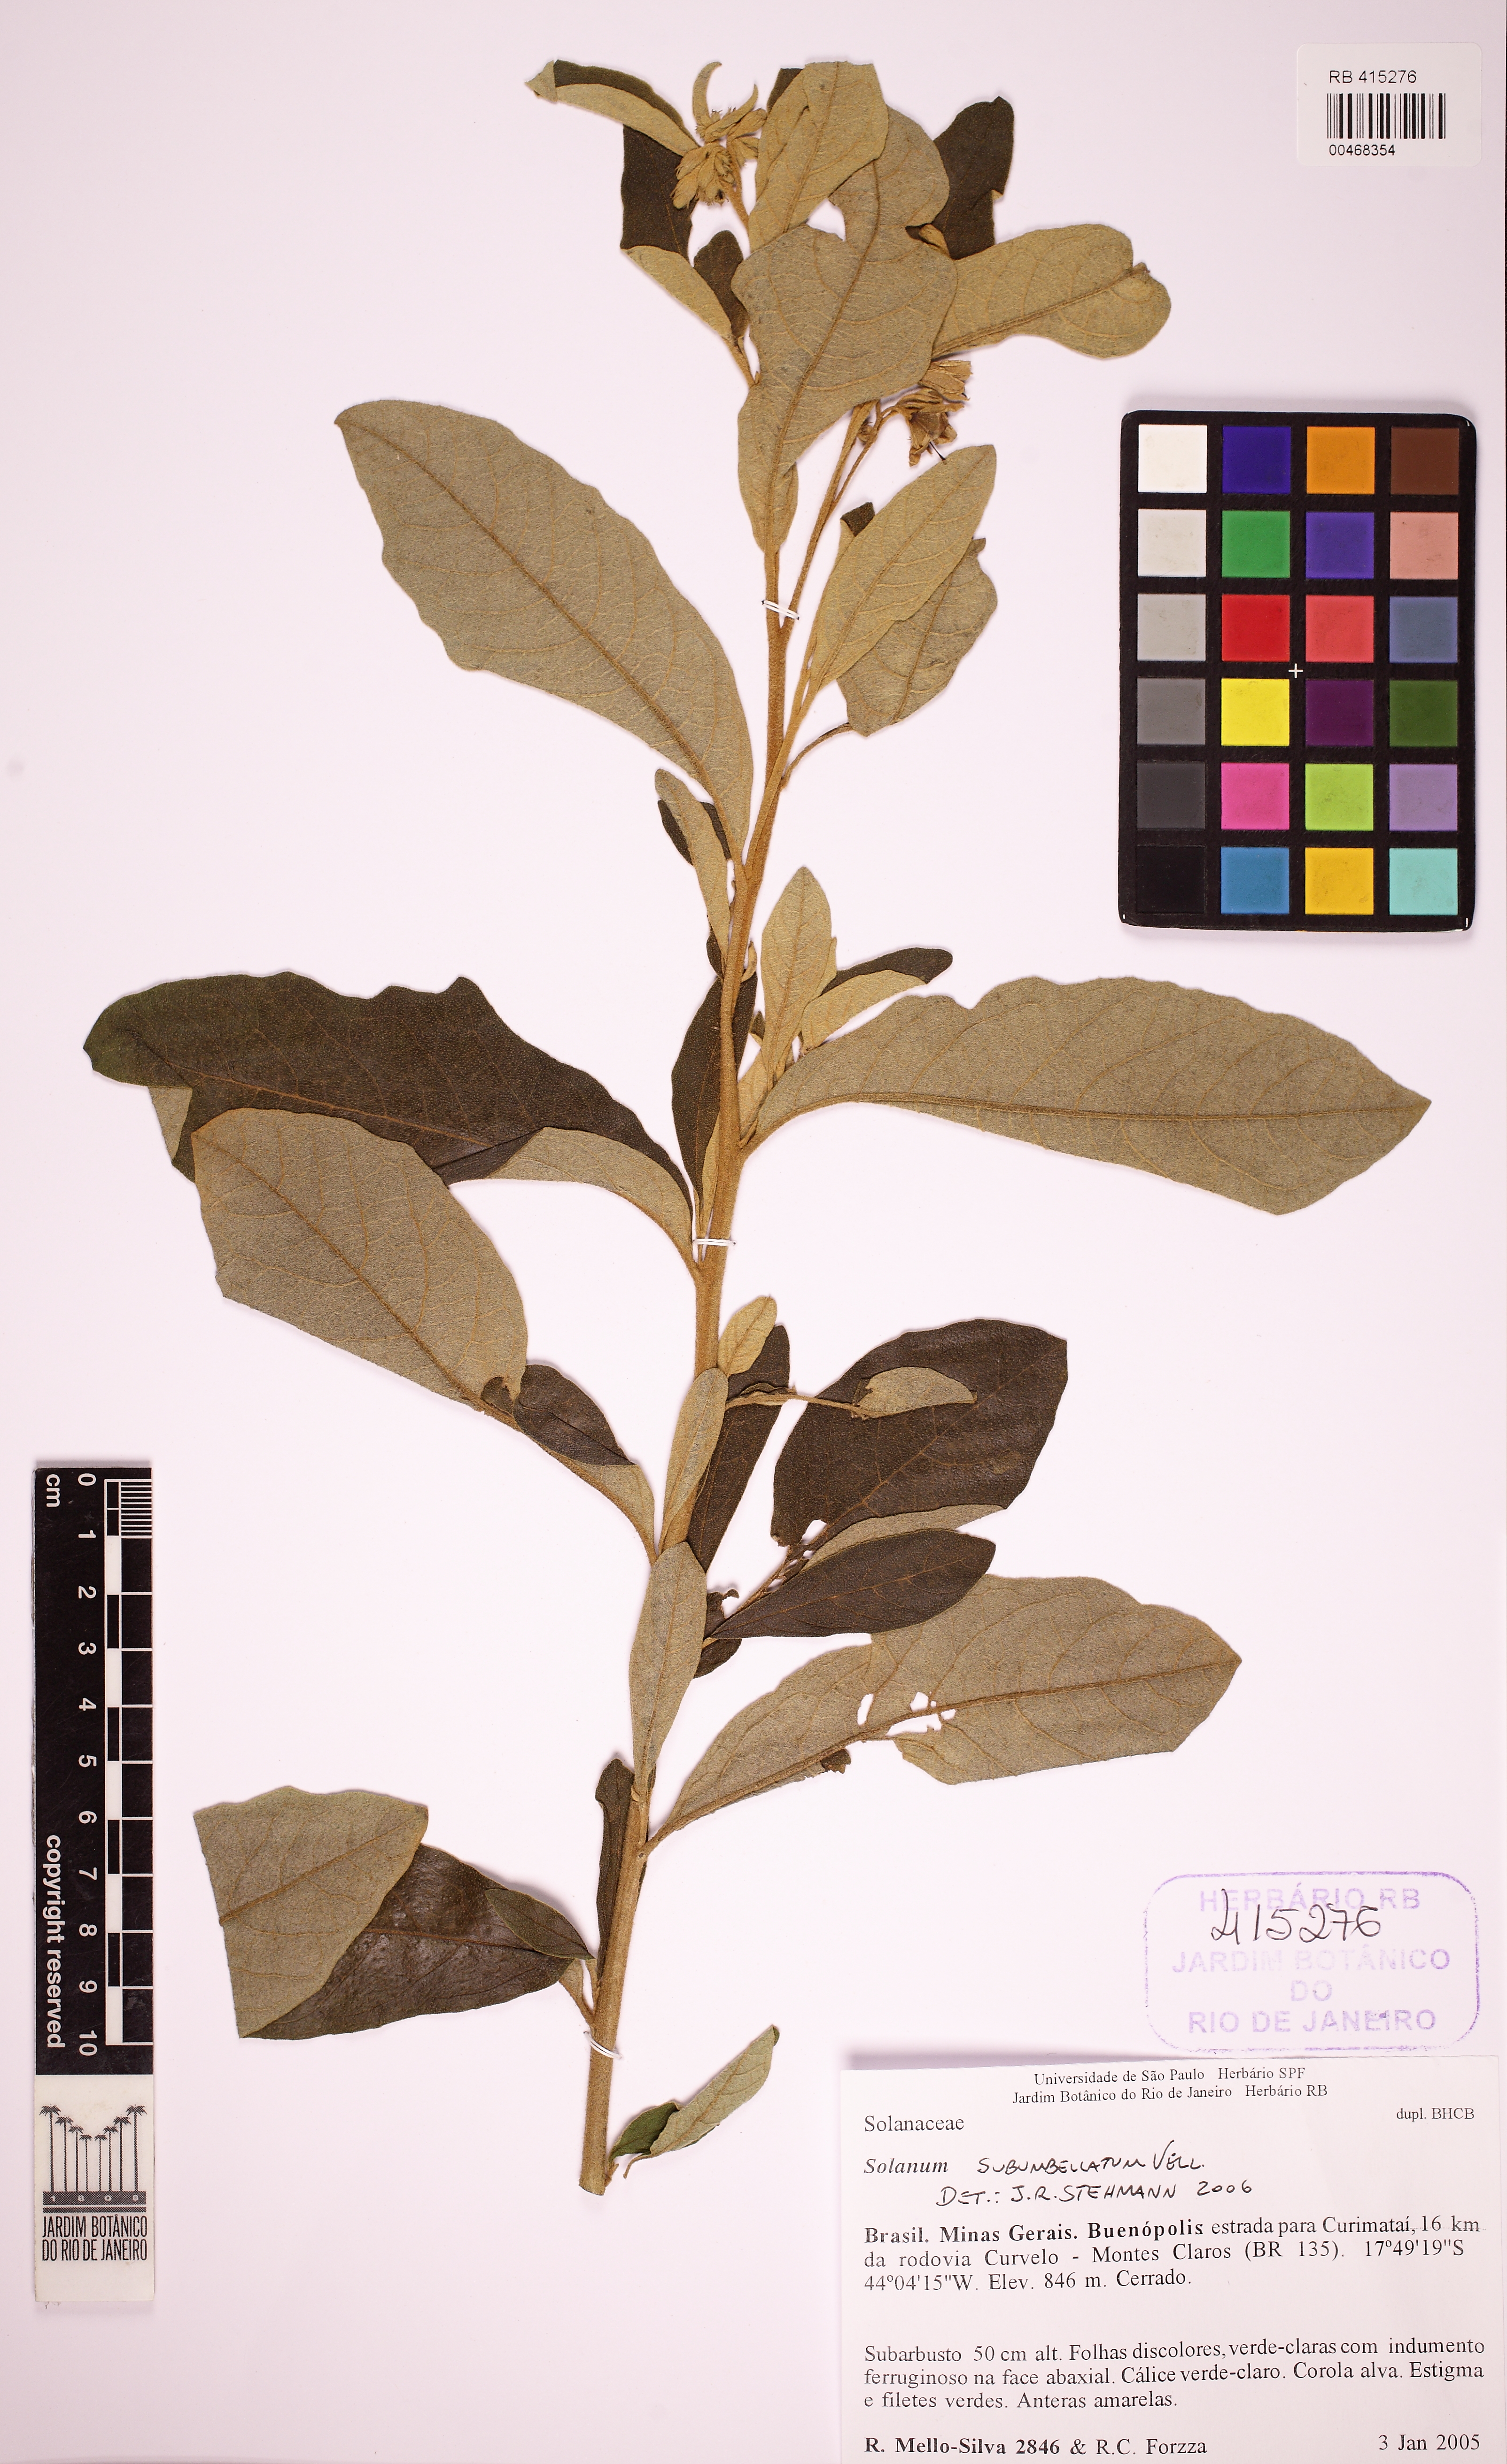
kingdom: Plantae
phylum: Tracheophyta
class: Magnoliopsida
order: Solanales
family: Solanaceae
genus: Solanum
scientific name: Solanum subumbellatum
